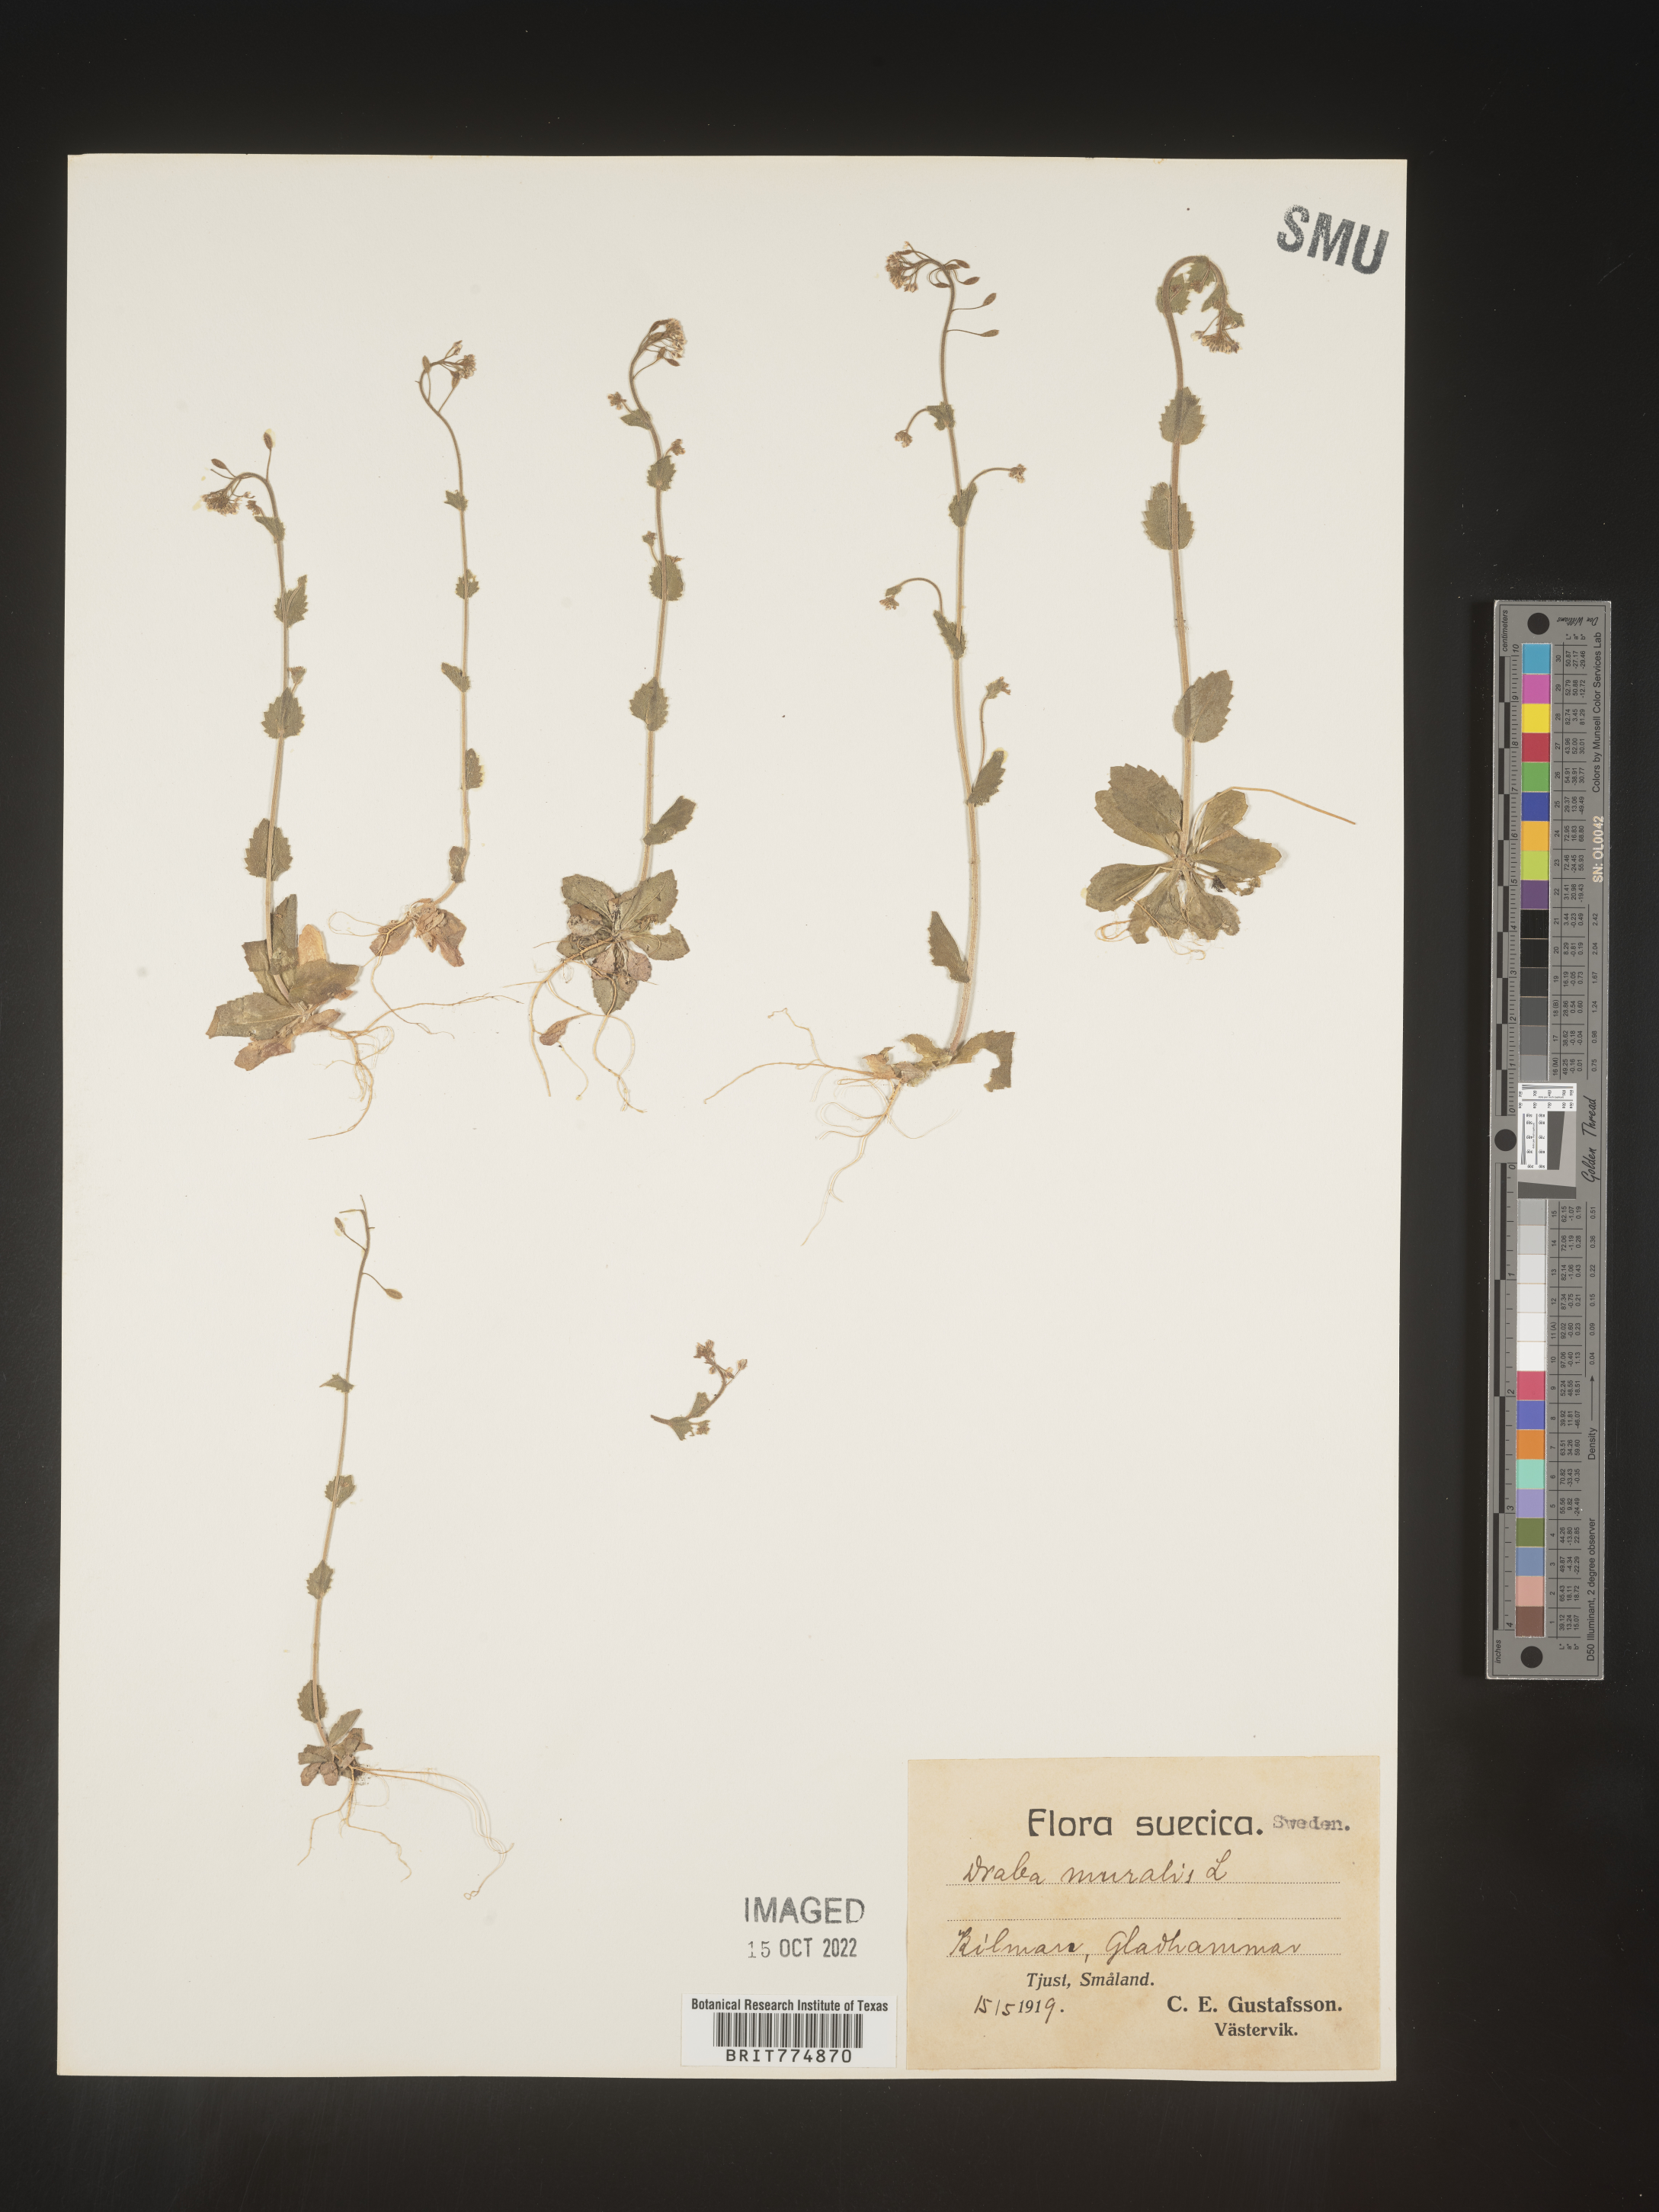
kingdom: Plantae
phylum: Tracheophyta
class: Magnoliopsida
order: Brassicales
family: Brassicaceae
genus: Draba
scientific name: Draba
